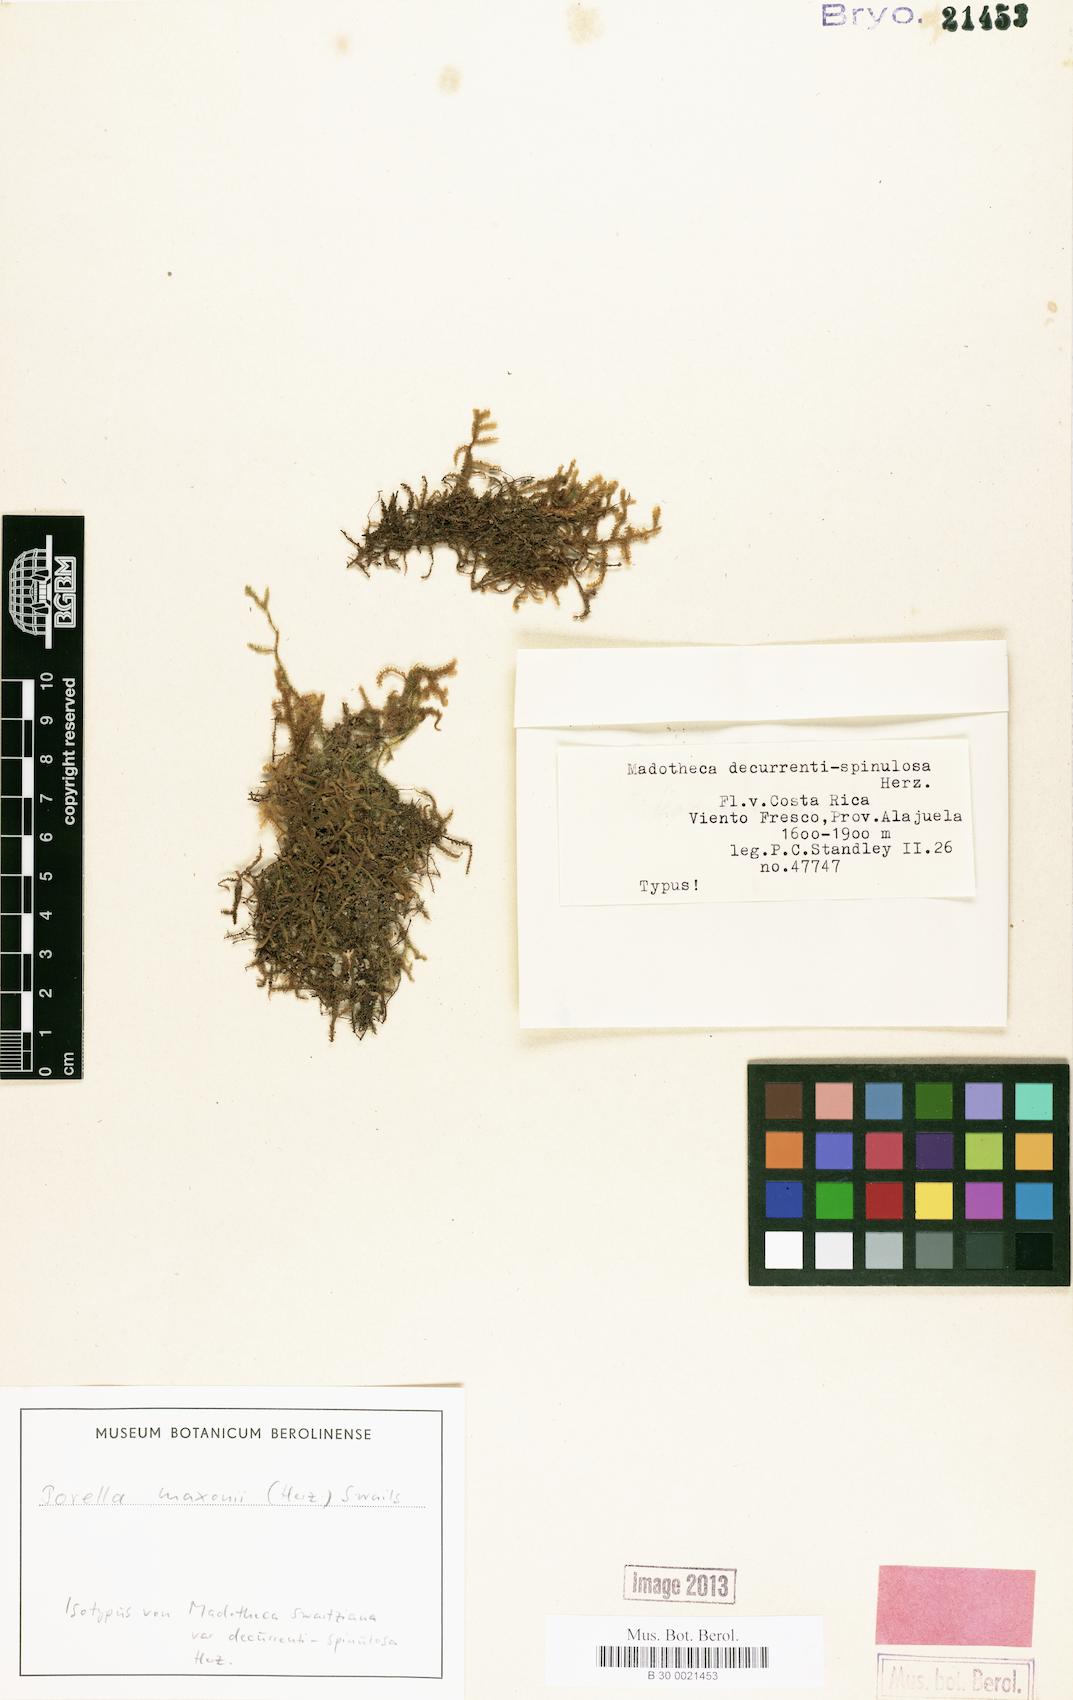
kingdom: Plantae
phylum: Marchantiophyta
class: Jungermanniopsida
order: Porellales
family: Porellaceae
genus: Porella
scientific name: Porella leiboldii
